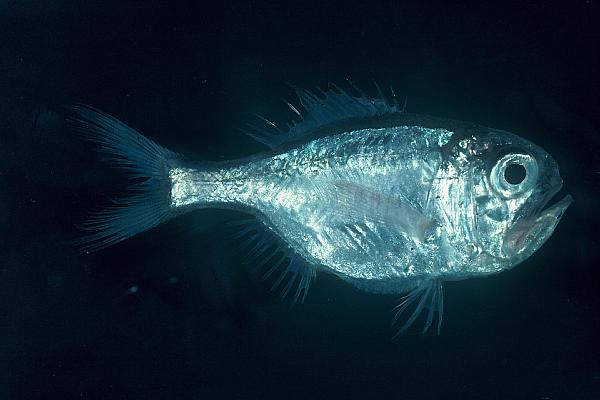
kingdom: Animalia
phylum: Chordata
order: Beryciformes
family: Trachichthyidae
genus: Hoplostethus
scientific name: Hoplostethus mediterraneus
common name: Rough-fish
